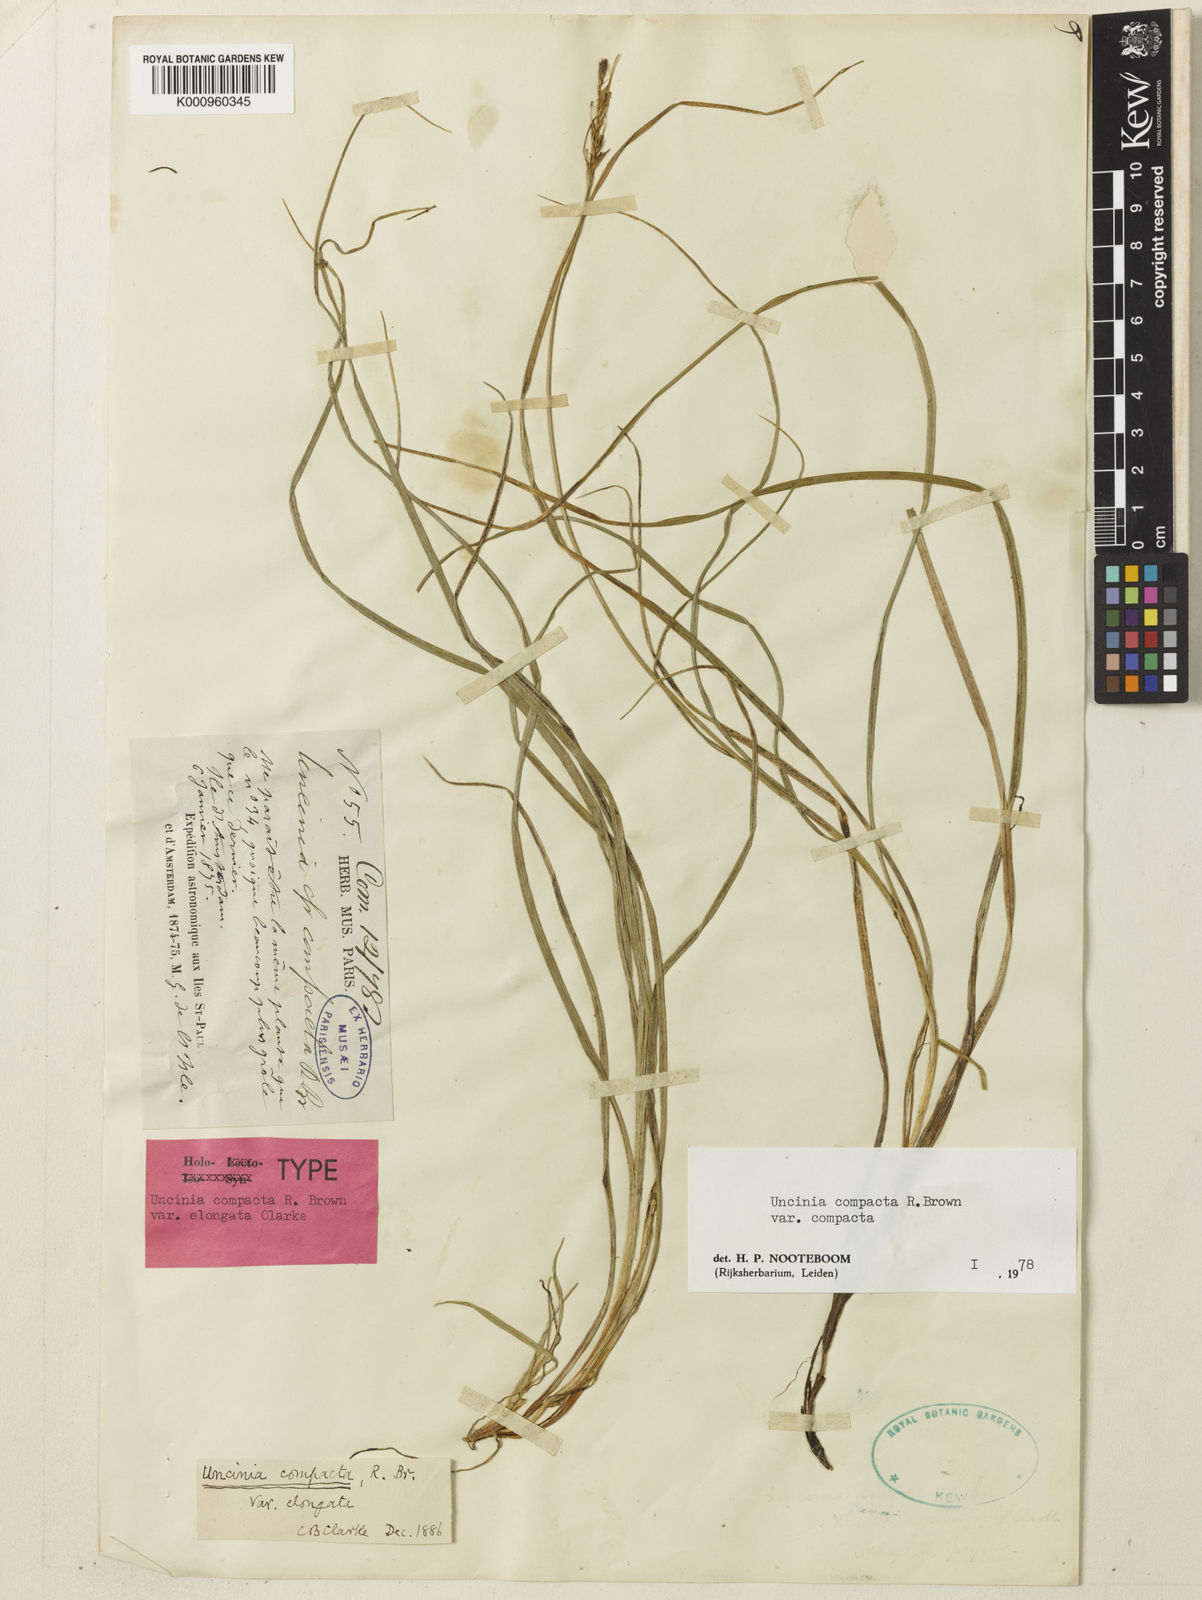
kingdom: Plantae
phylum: Tracheophyta
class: Liliopsida
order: Poales
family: Cyperaceae
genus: Carex
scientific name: Carex austrocompacta
